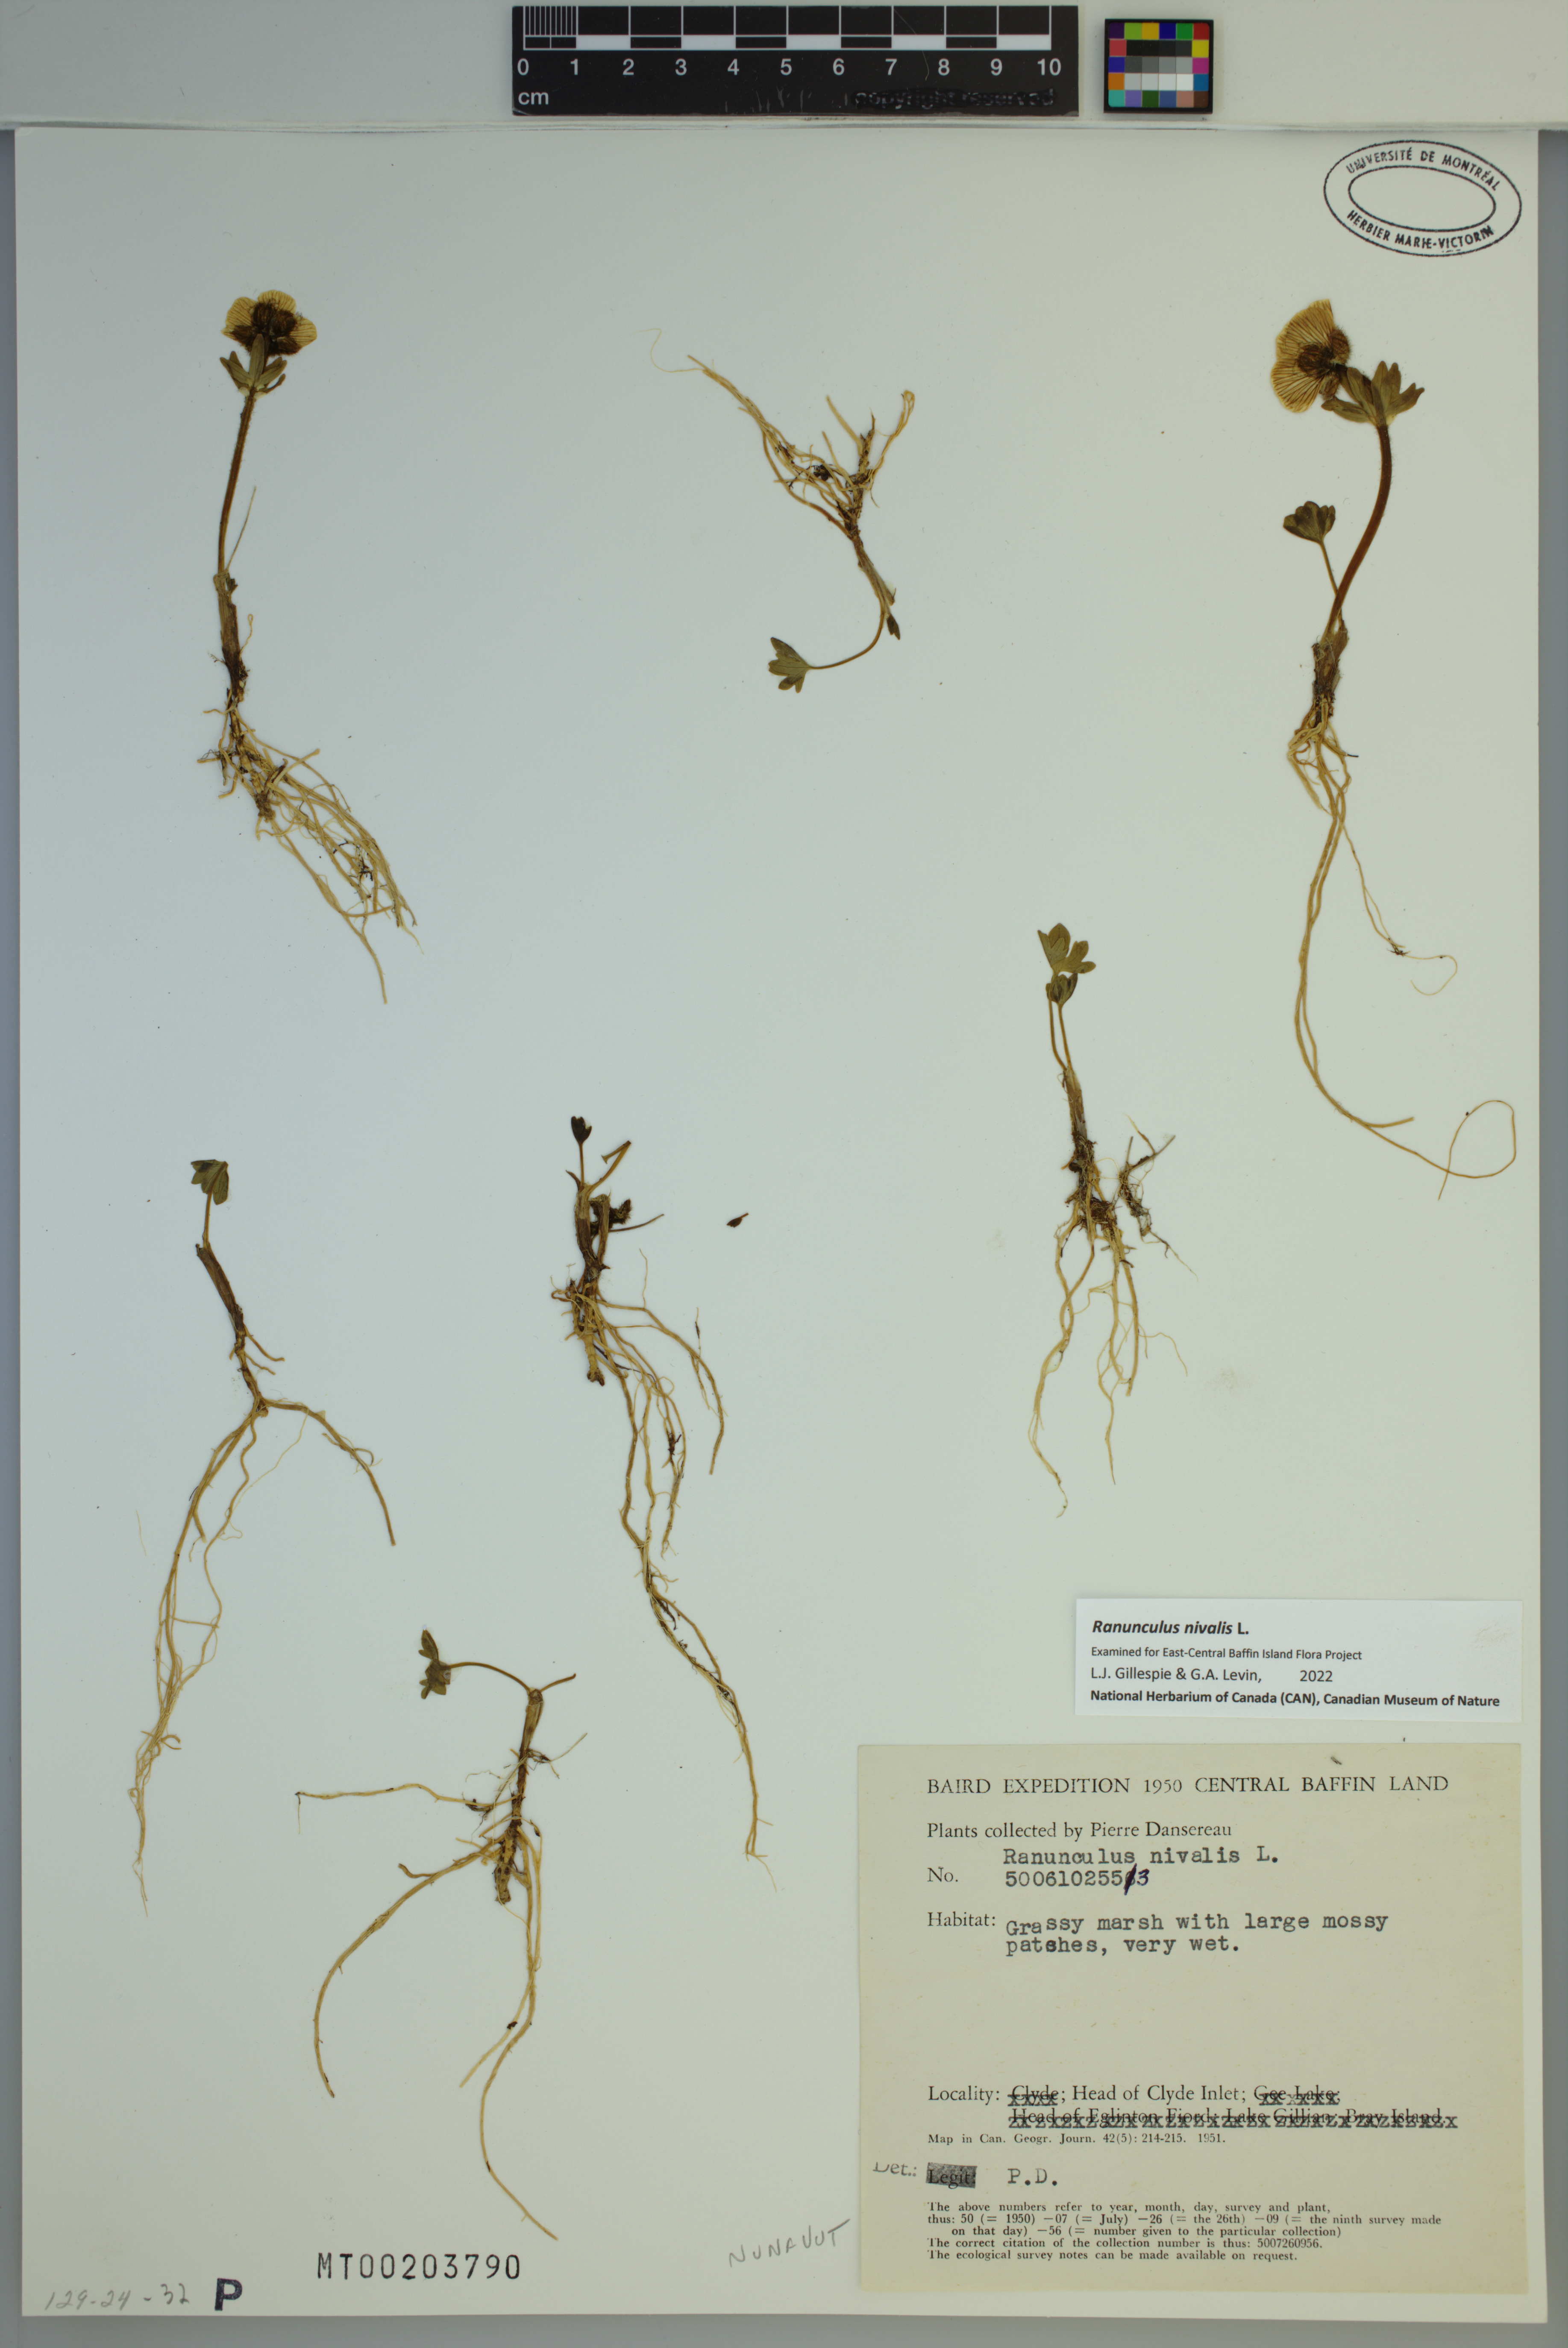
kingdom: Plantae
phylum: Tracheophyta
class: Magnoliopsida
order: Ranunculales
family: Ranunculaceae
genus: Ranunculus
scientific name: Ranunculus nivalis
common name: Snow buttercup
